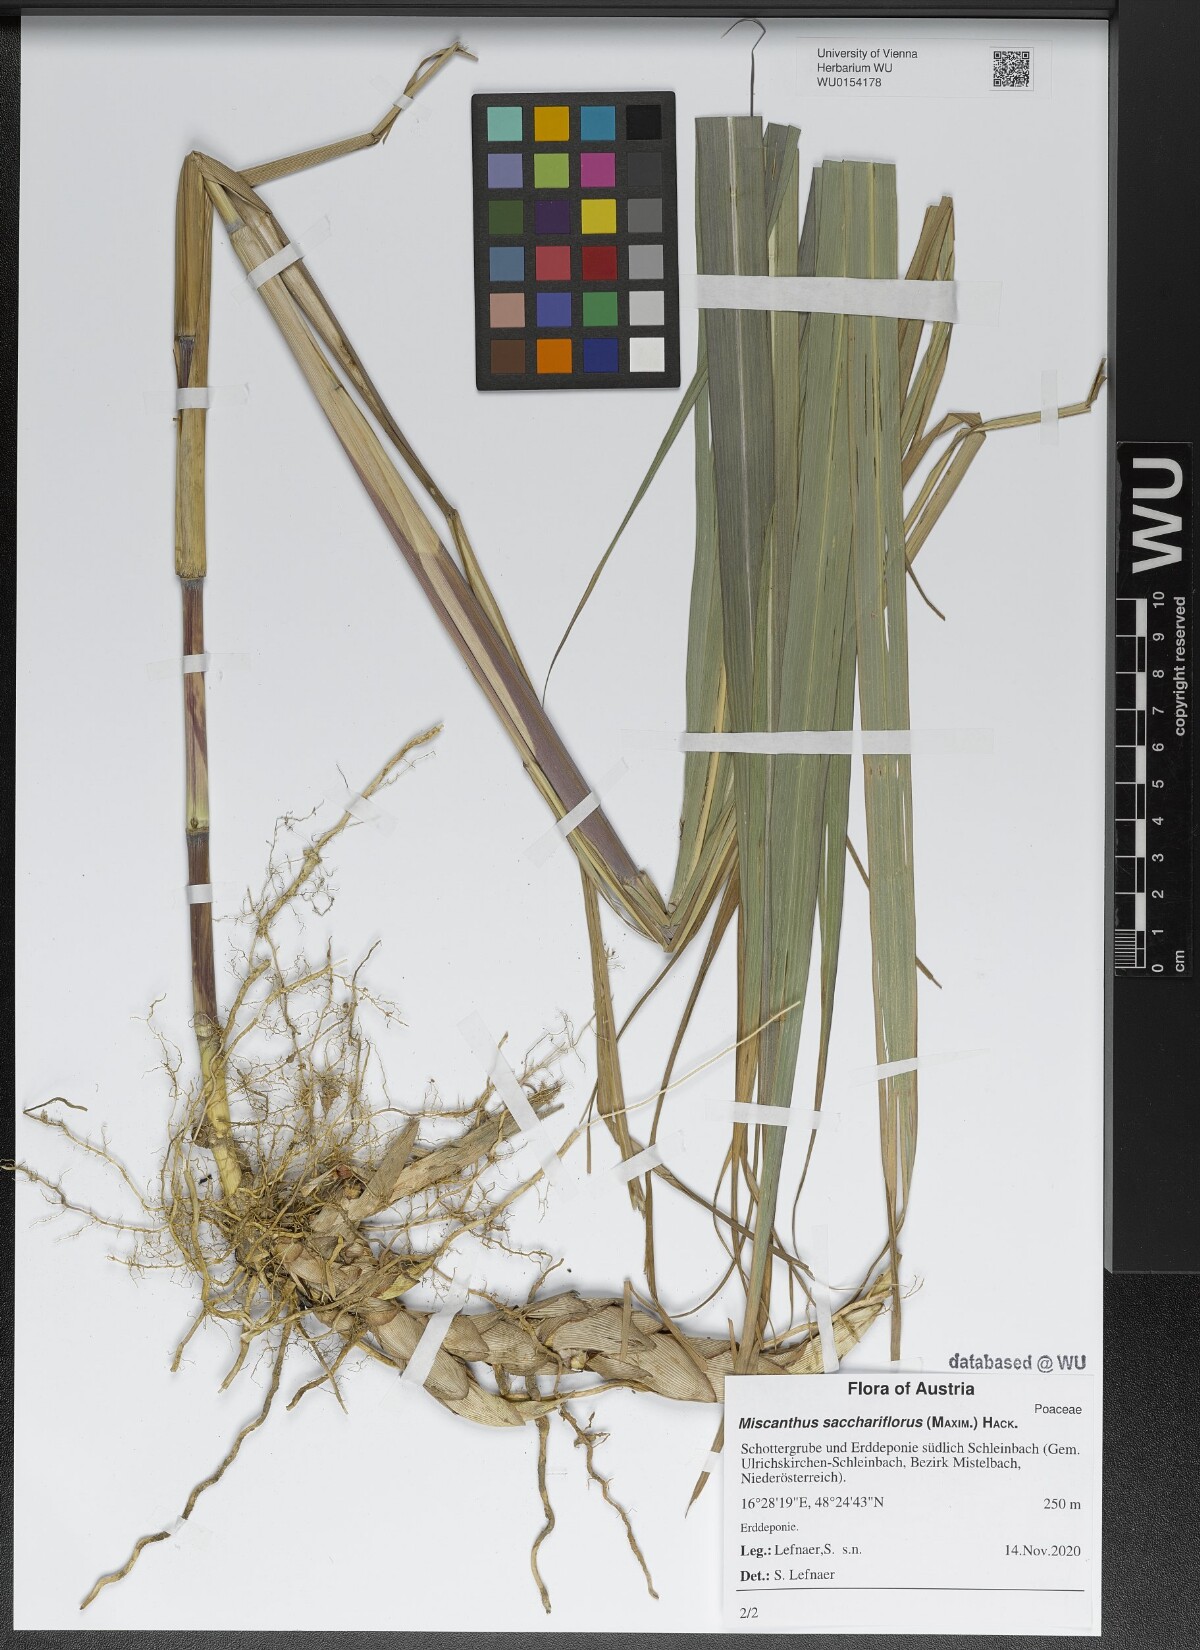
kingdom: Plantae
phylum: Tracheophyta
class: Liliopsida
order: Poales
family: Poaceae
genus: Miscanthus
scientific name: Miscanthus sacchariflorus
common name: Amur silver grass
